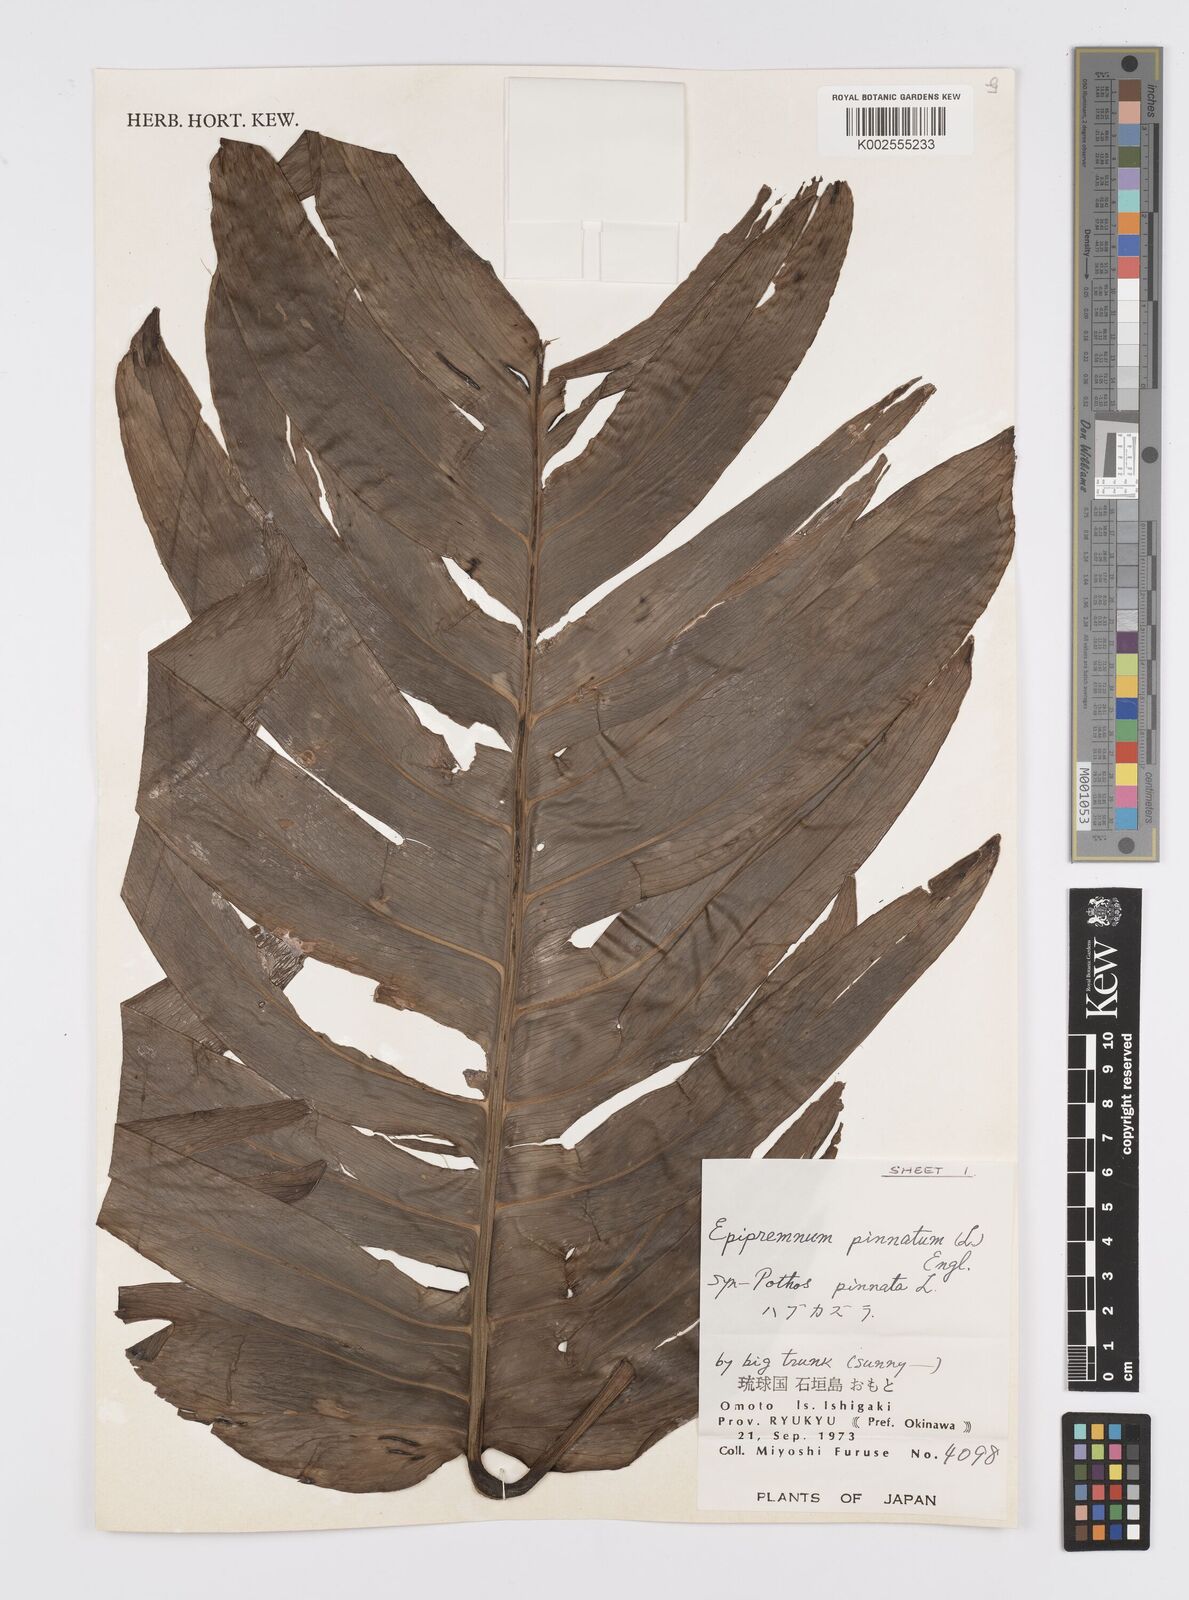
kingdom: Plantae
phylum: Tracheophyta
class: Liliopsida
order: Alismatales
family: Araceae
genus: Epipremnum
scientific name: Epipremnum pinnatum
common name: Centipede tongavine
